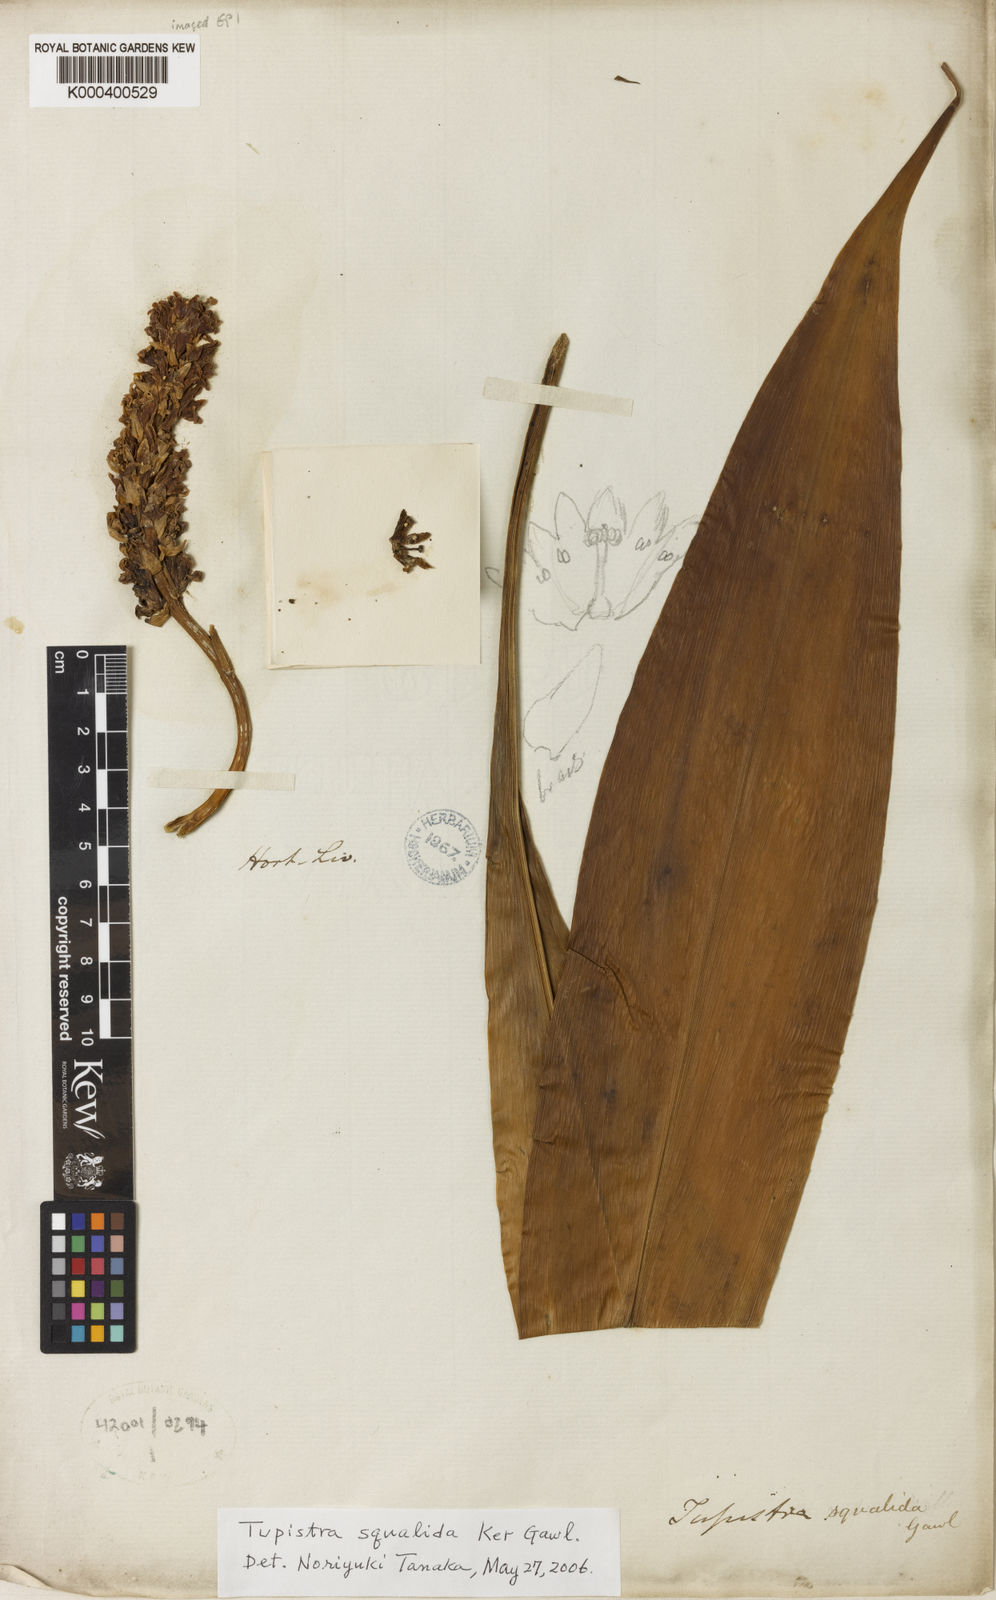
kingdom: Plantae
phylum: Tracheophyta
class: Liliopsida
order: Asparagales
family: Asparagaceae
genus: Tupistra
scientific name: Tupistra squalida
